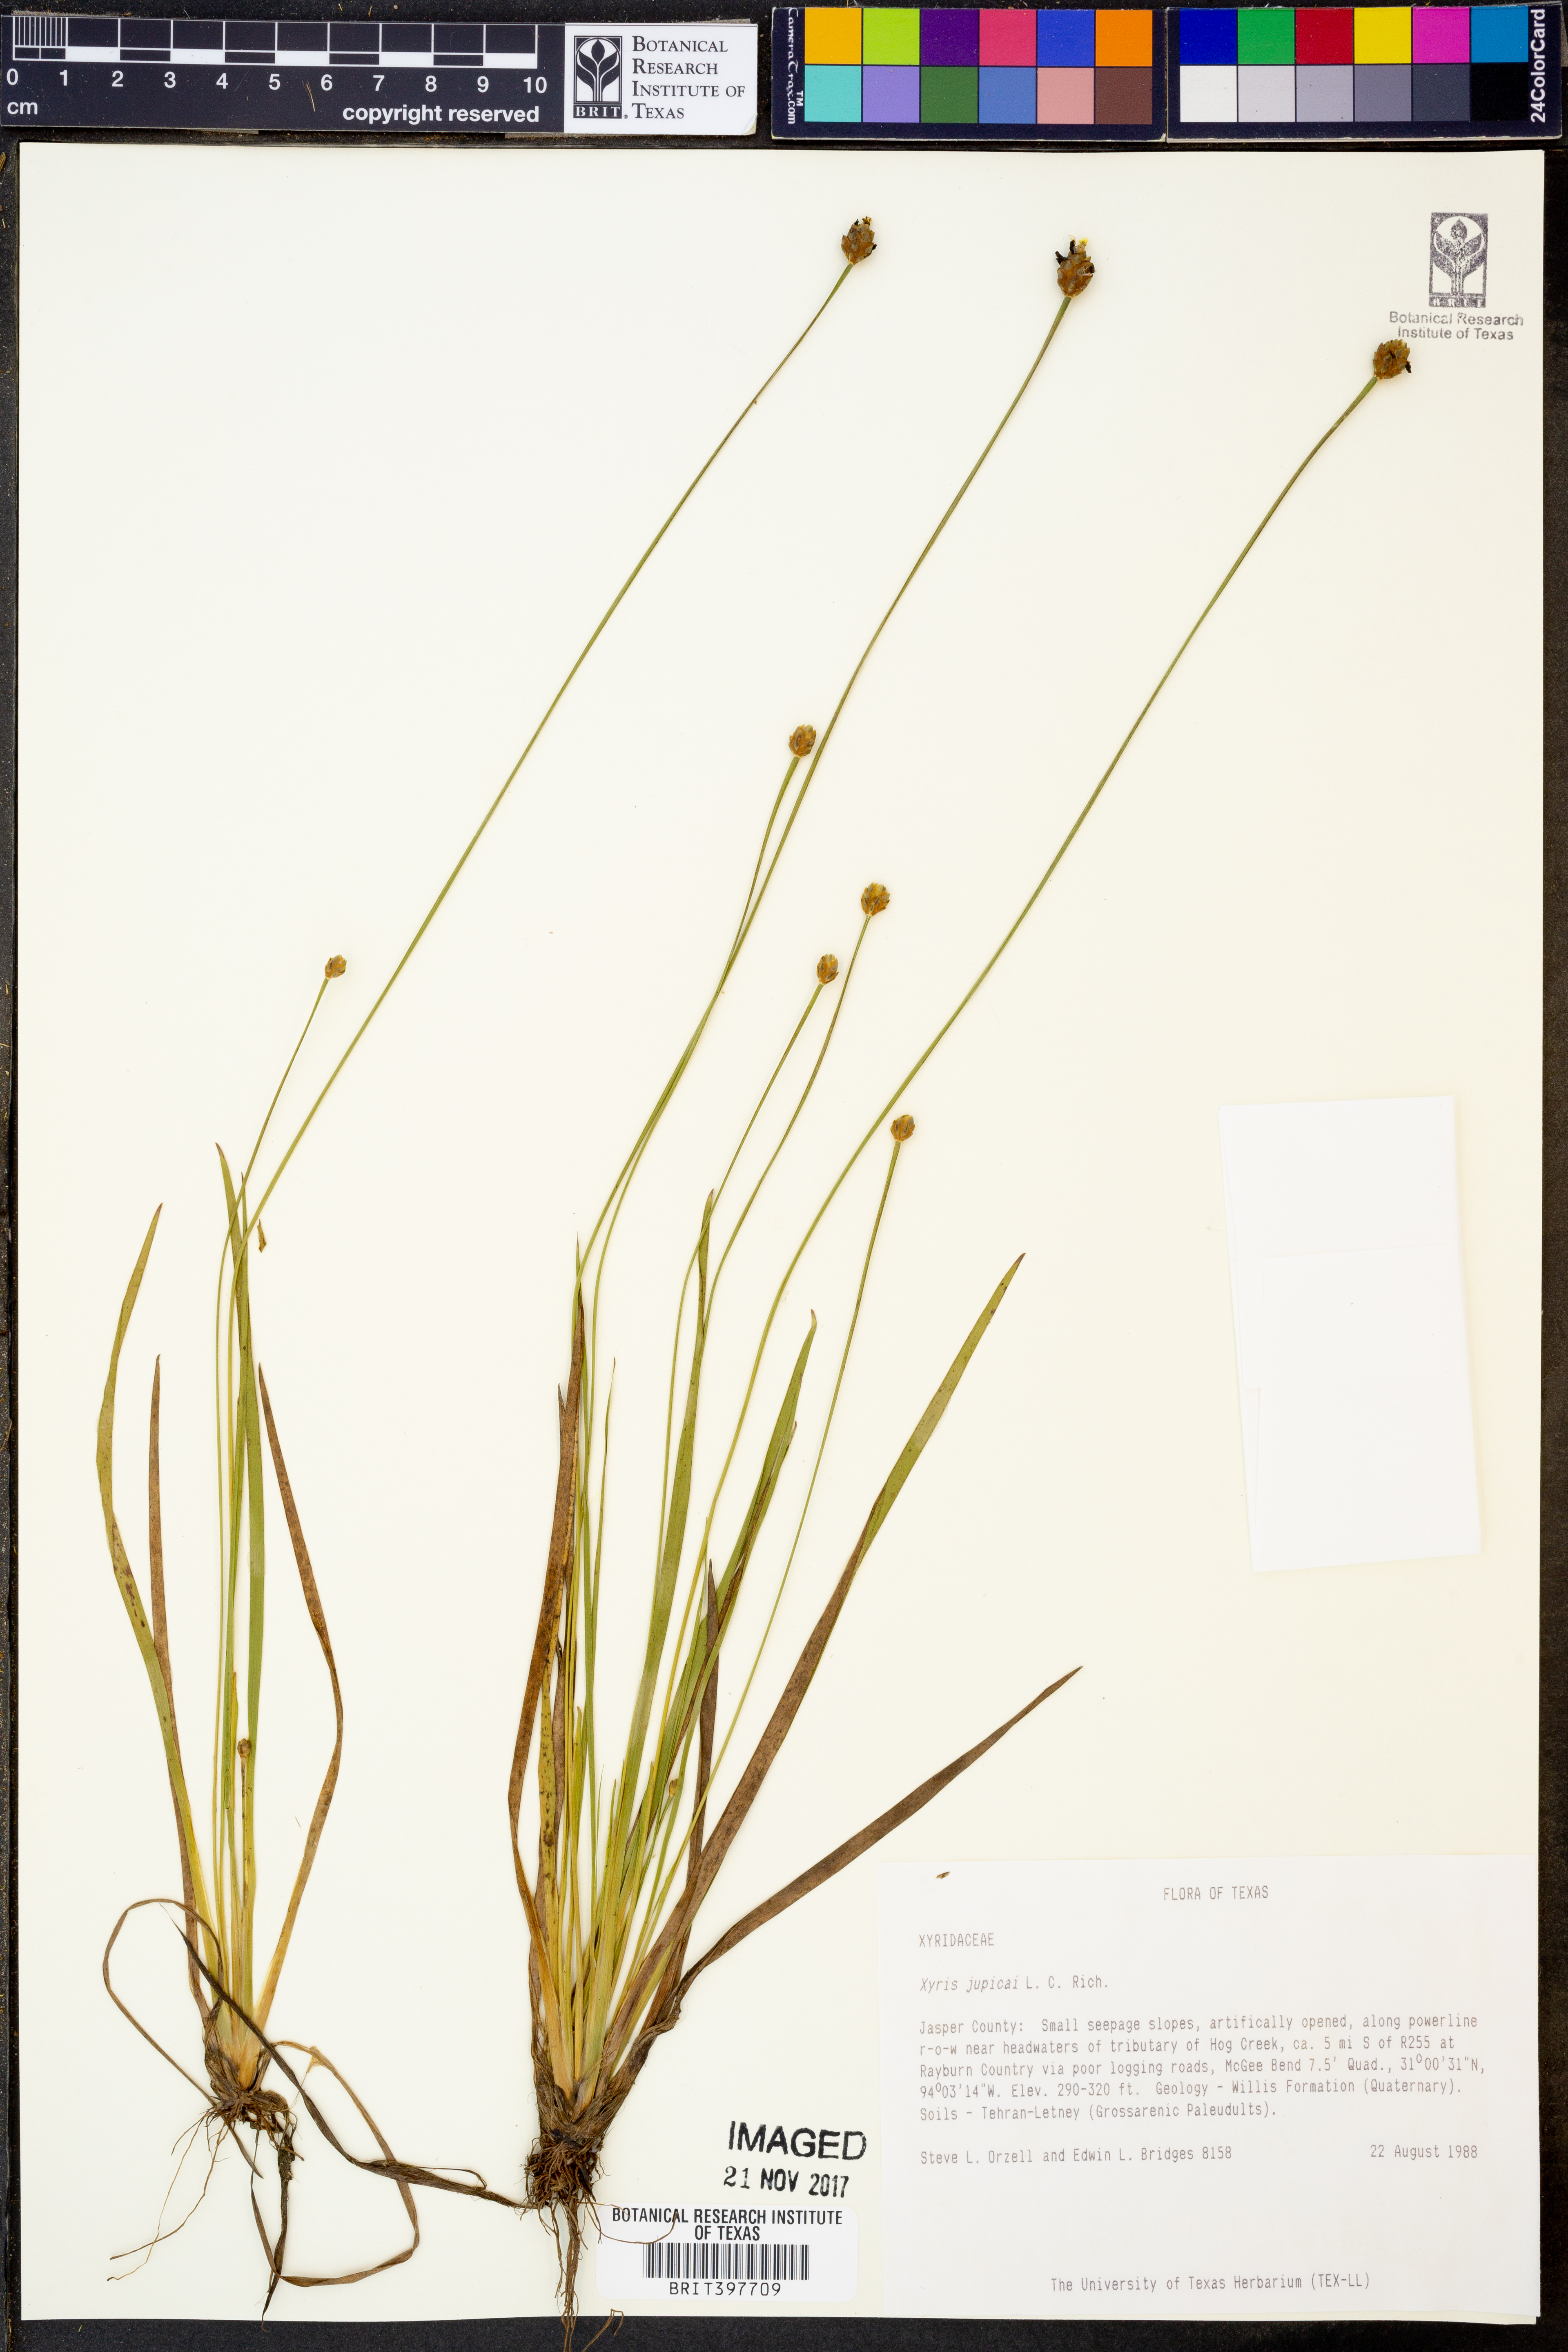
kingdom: Plantae
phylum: Tracheophyta
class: Liliopsida
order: Poales
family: Xyridaceae
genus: Xyris
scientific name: Xyris jupicai
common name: Richard's yelloweyed grass
